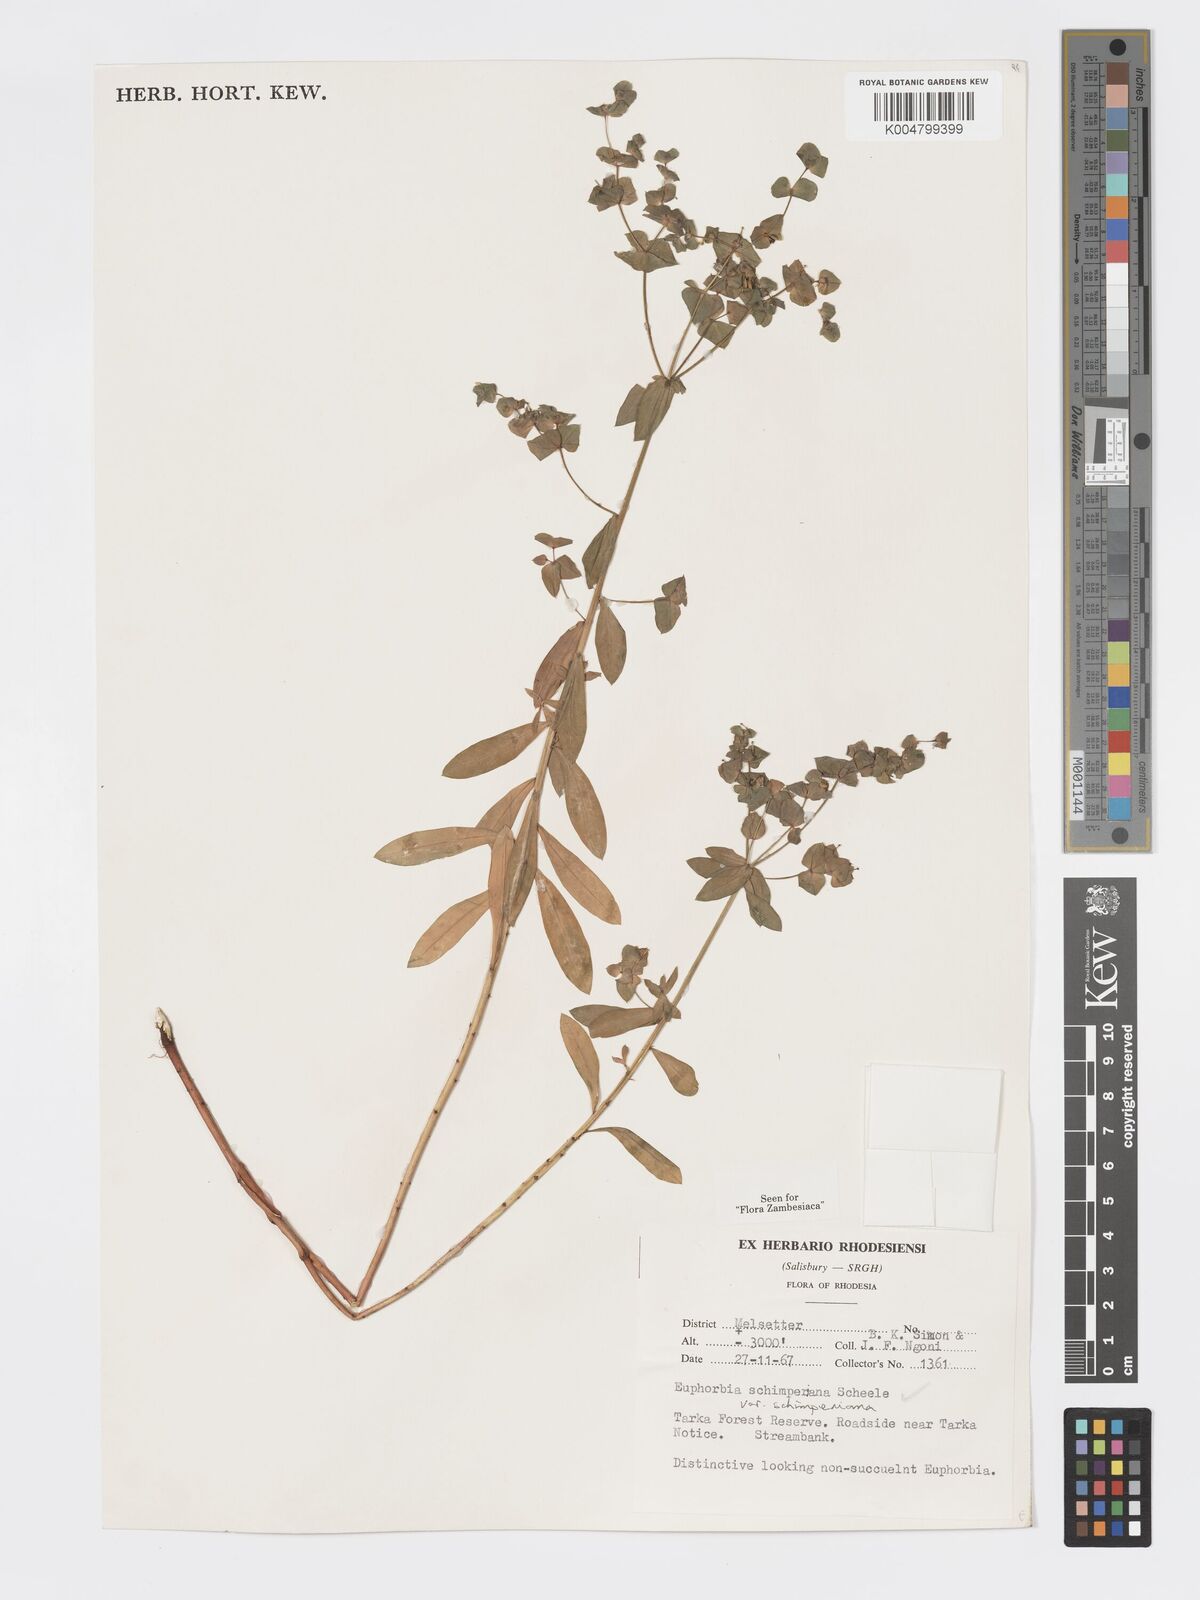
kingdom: Plantae
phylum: Tracheophyta
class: Magnoliopsida
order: Malpighiales
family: Euphorbiaceae
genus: Euphorbia
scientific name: Euphorbia schimperiana
